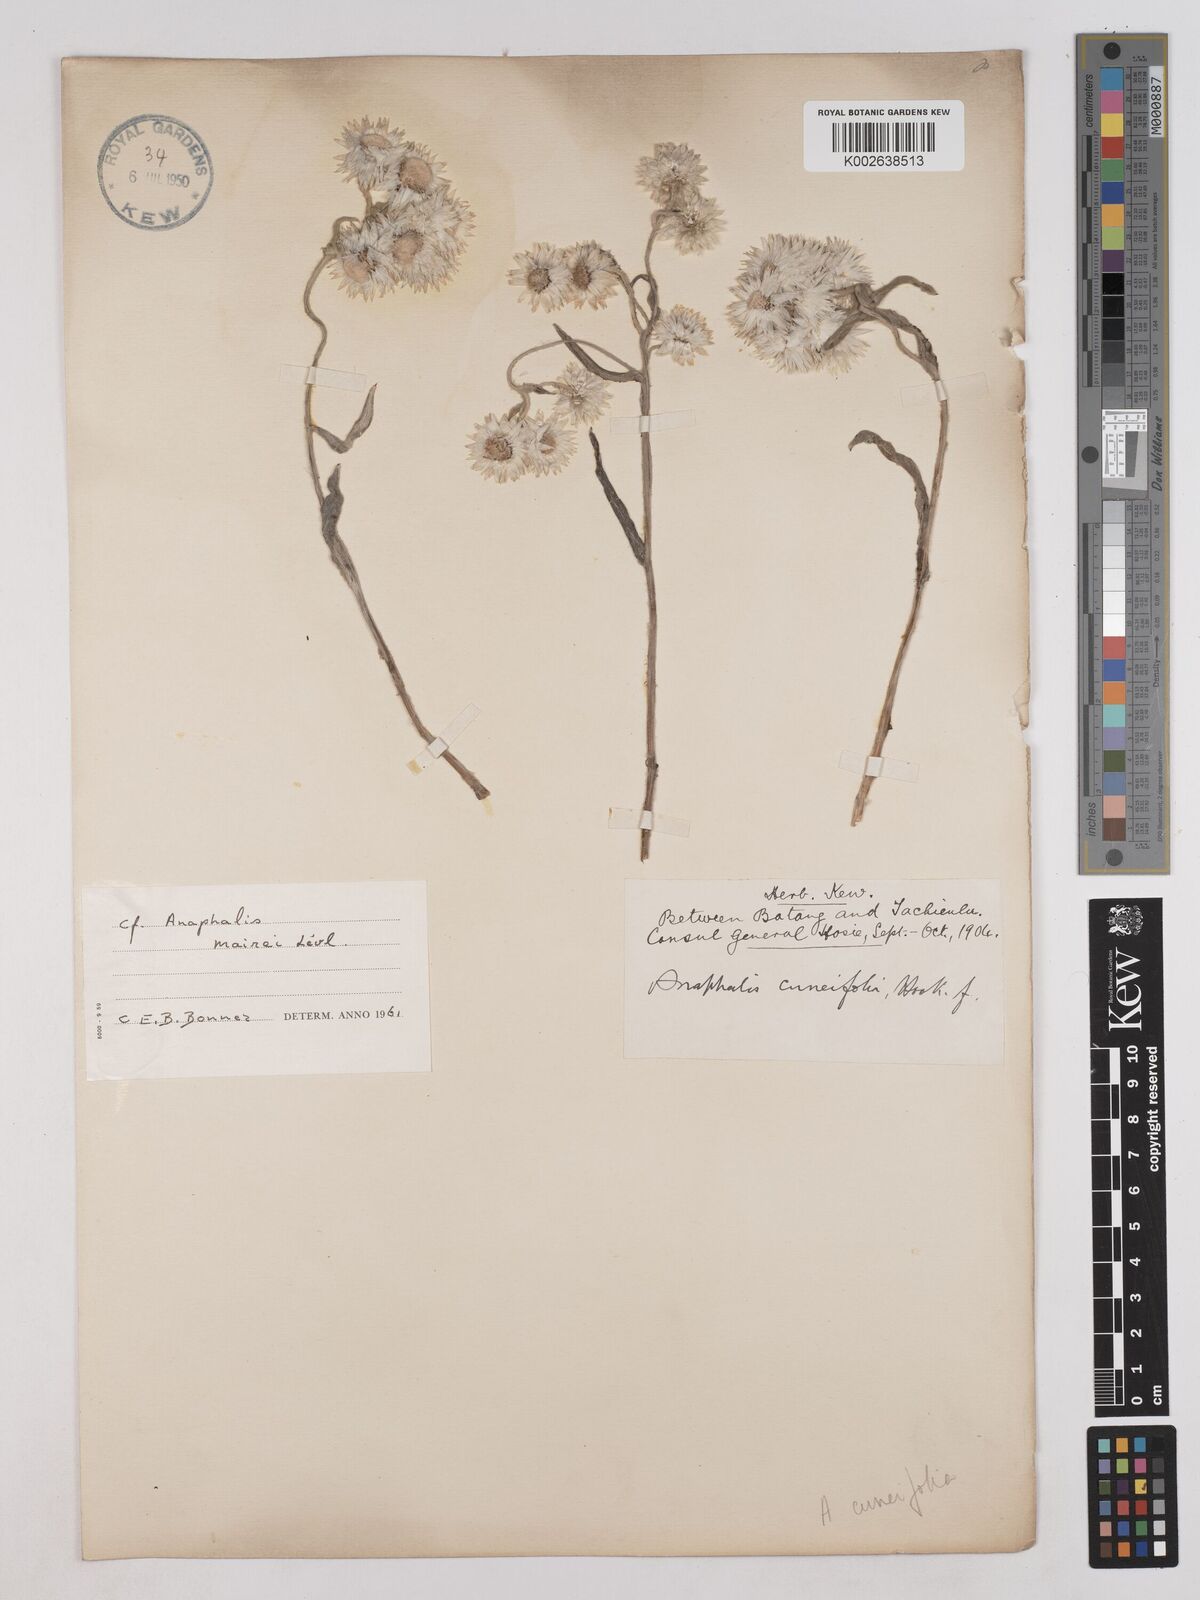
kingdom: Plantae
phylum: Tracheophyta
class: Magnoliopsida
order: Asterales
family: Asteraceae
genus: Anaphalis
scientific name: Anaphalis nepalensis
